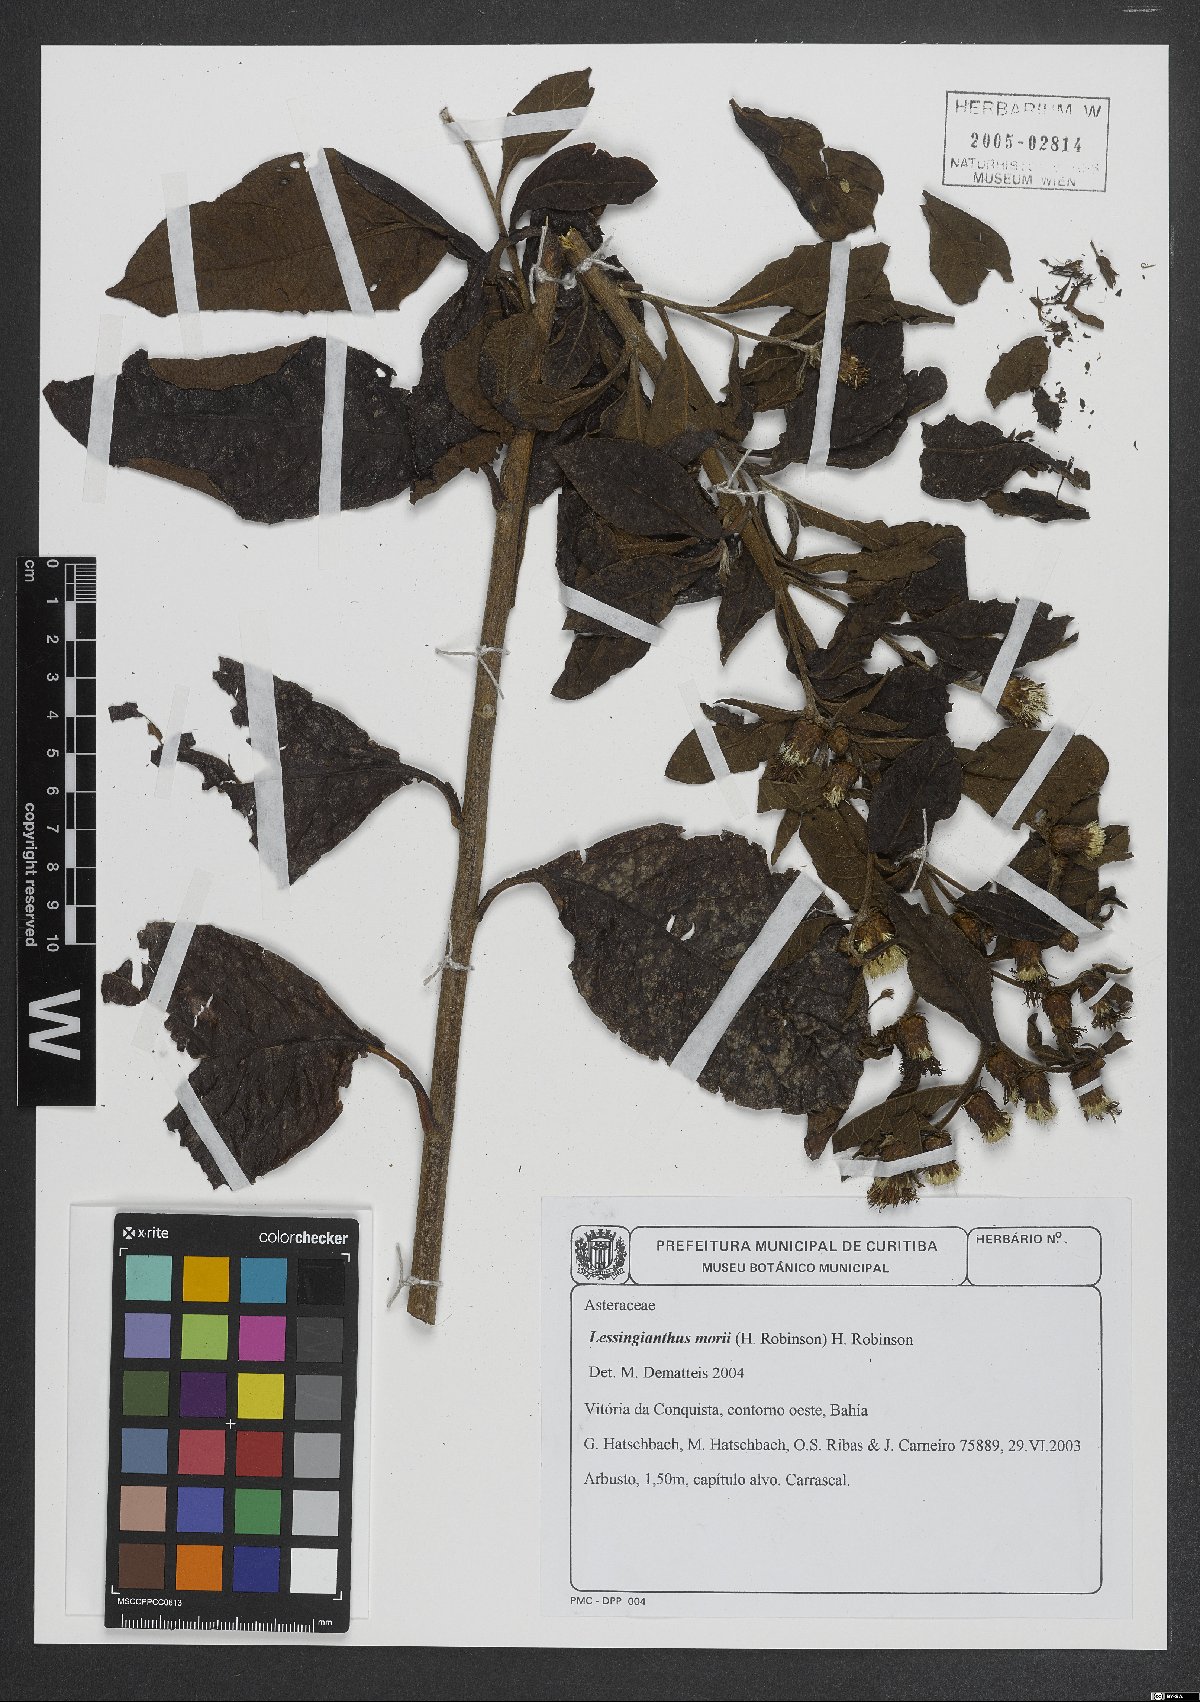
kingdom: Plantae
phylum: Tracheophyta
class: Magnoliopsida
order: Asterales
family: Asteraceae
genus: Lessingianthus
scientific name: Lessingianthus morii
